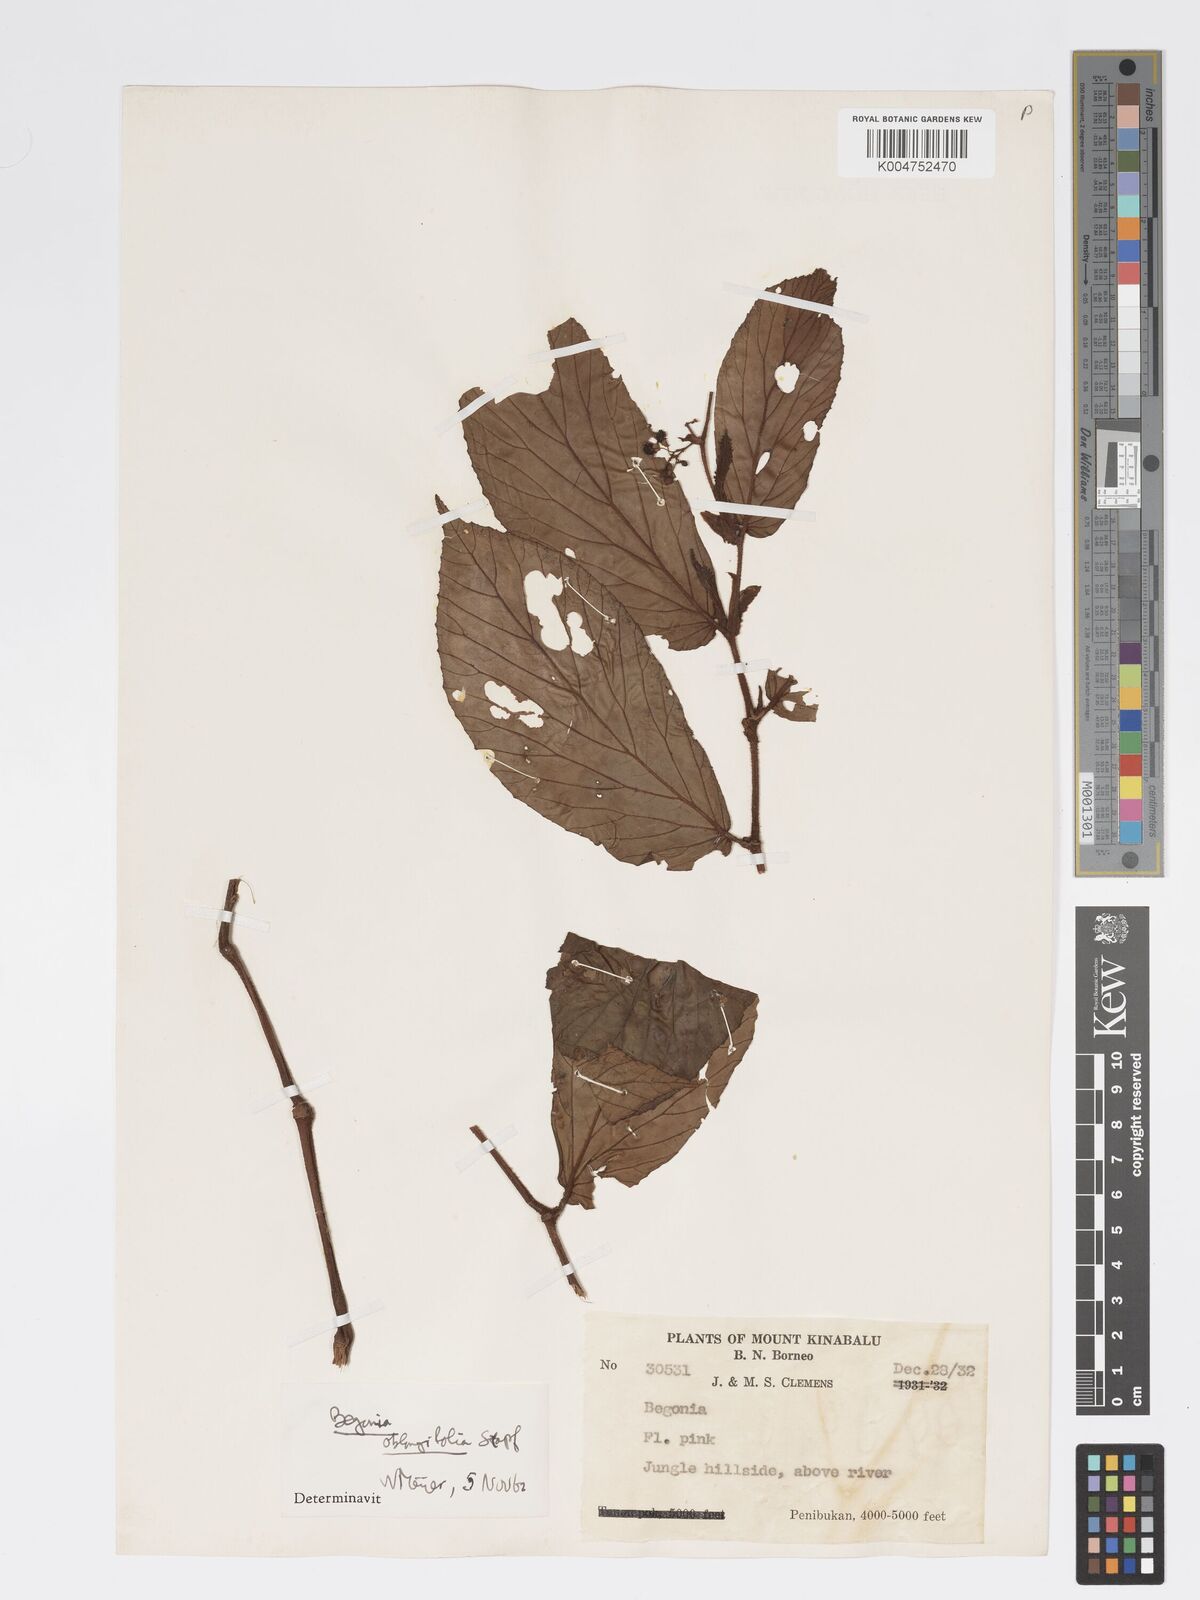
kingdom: Plantae
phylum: Tracheophyta
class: Magnoliopsida
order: Cucurbitales
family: Begoniaceae
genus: Begonia
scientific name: Begonia oblongifolia
